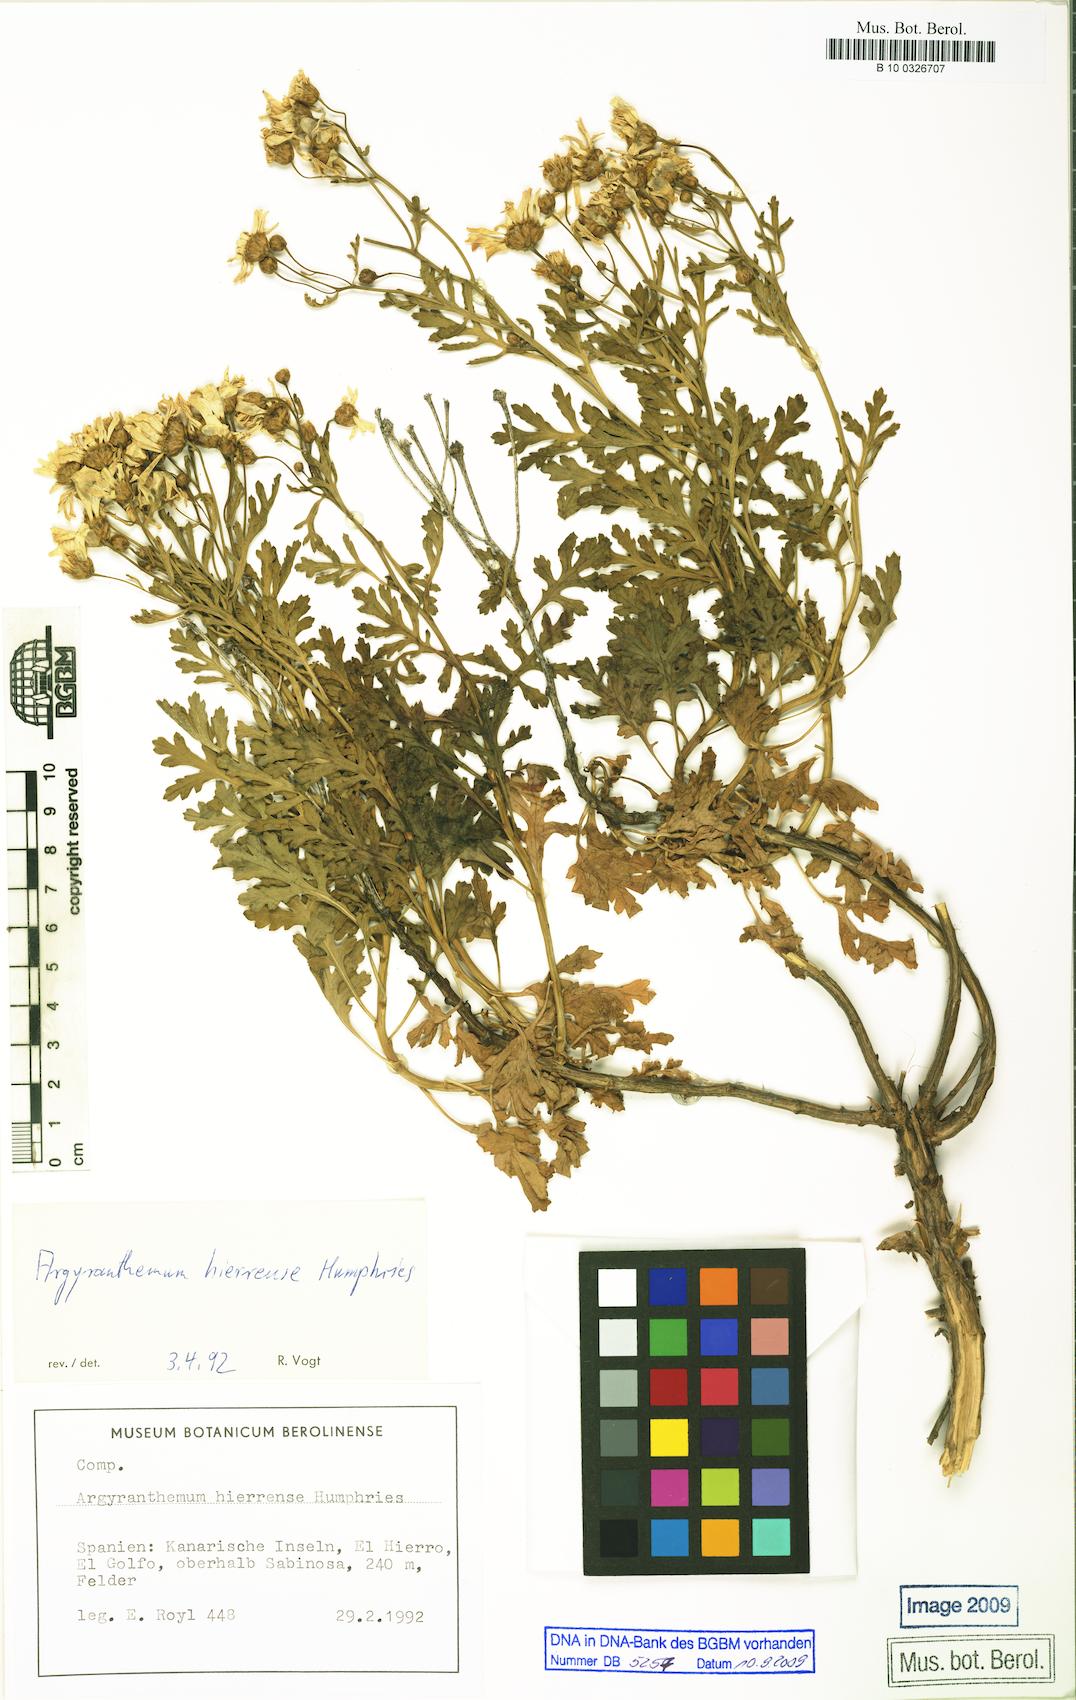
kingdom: Plantae
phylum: Tracheophyta
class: Magnoliopsida
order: Asterales
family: Asteraceae
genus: Argyranthemum
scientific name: Argyranthemum hierrense
